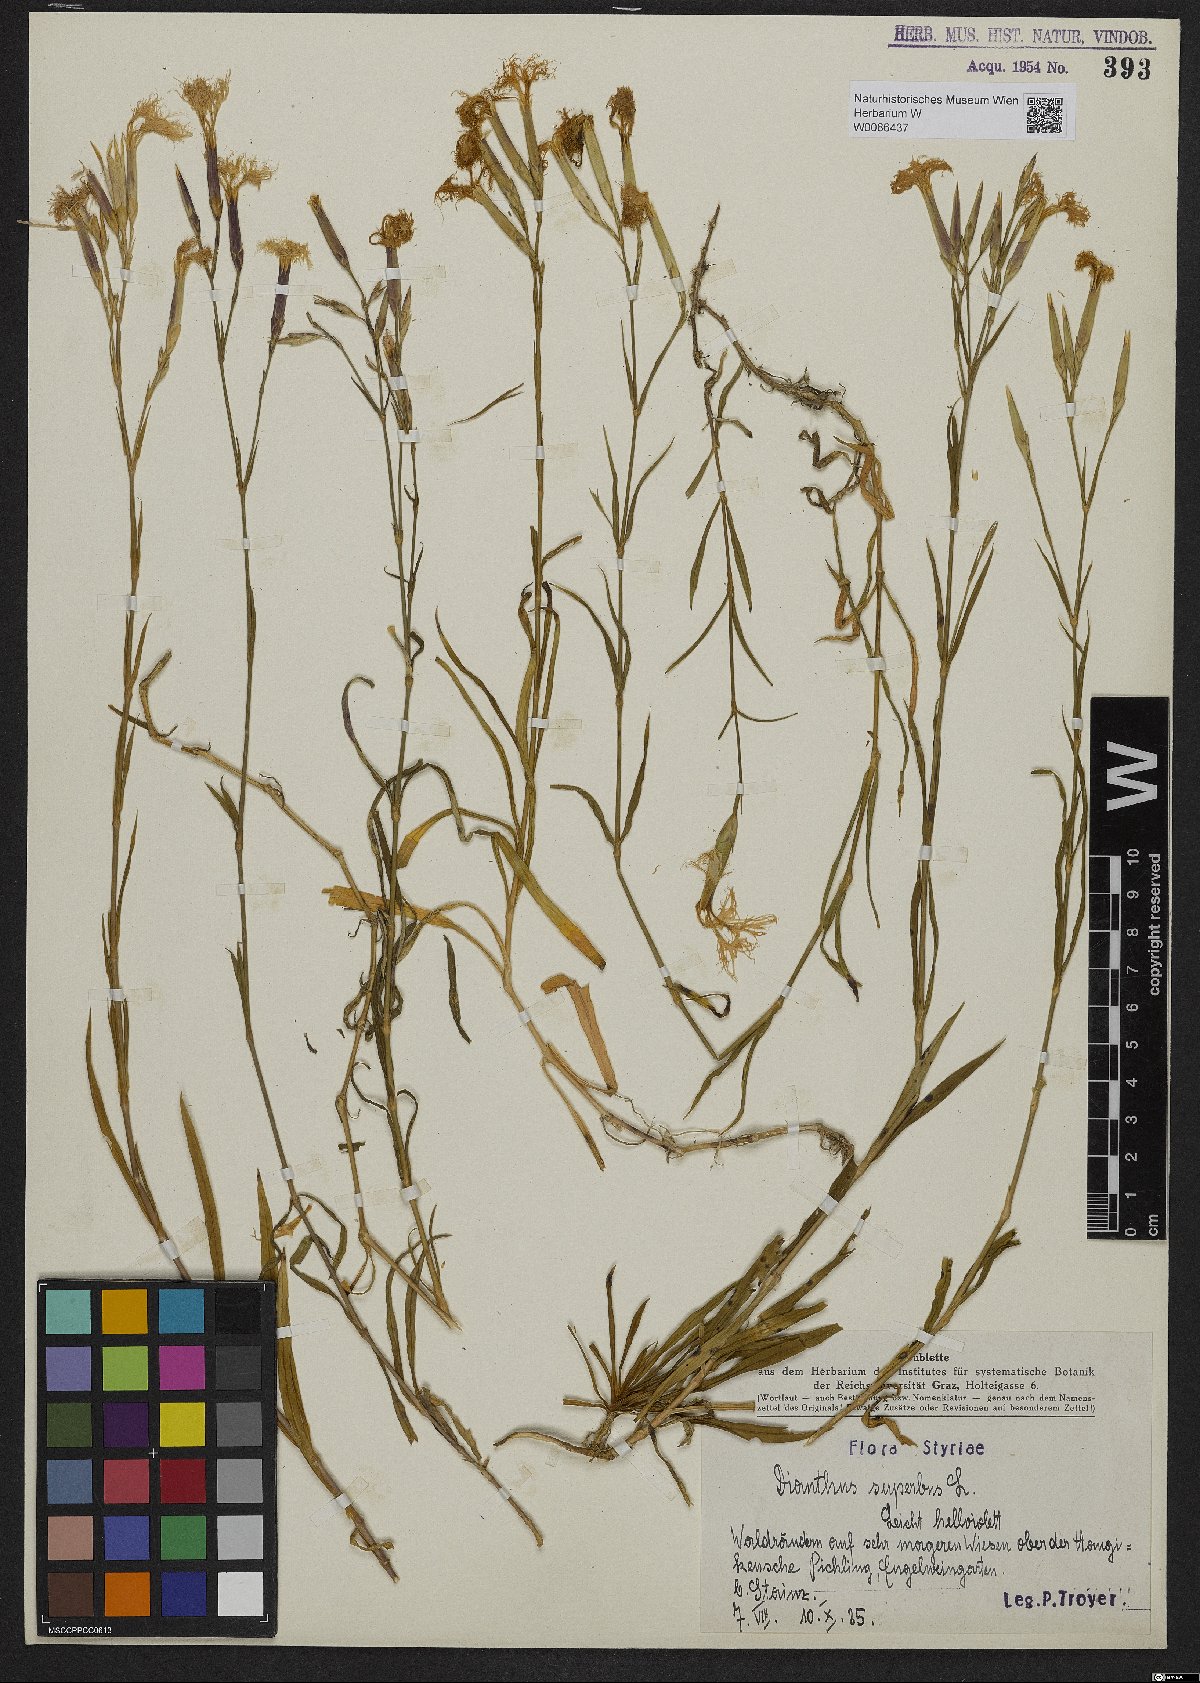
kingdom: Plantae
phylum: Tracheophyta
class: Magnoliopsida
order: Caryophyllales
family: Caryophyllaceae
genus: Dianthus
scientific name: Dianthus superbus
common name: Fringed pink
